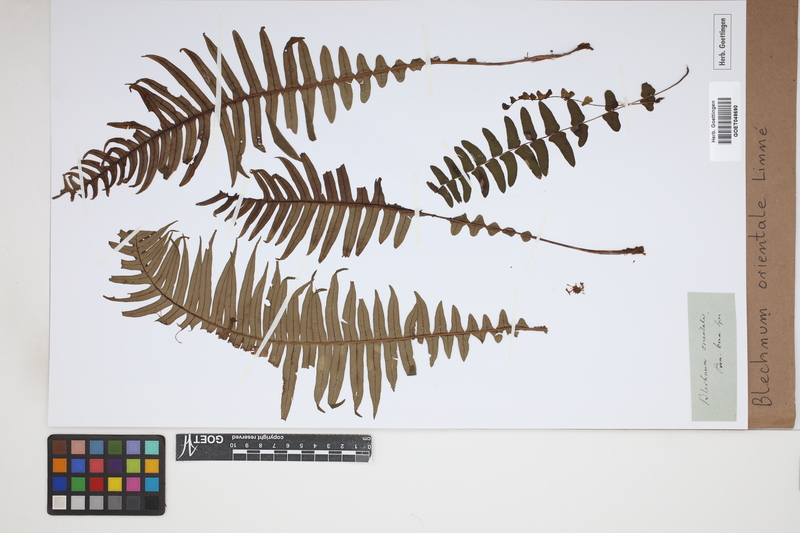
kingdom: Plantae
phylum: Tracheophyta
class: Polypodiopsida
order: Polypodiales
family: Blechnaceae
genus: Blechnopsis
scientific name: Blechnopsis orientalis
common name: Oriental blechnum
